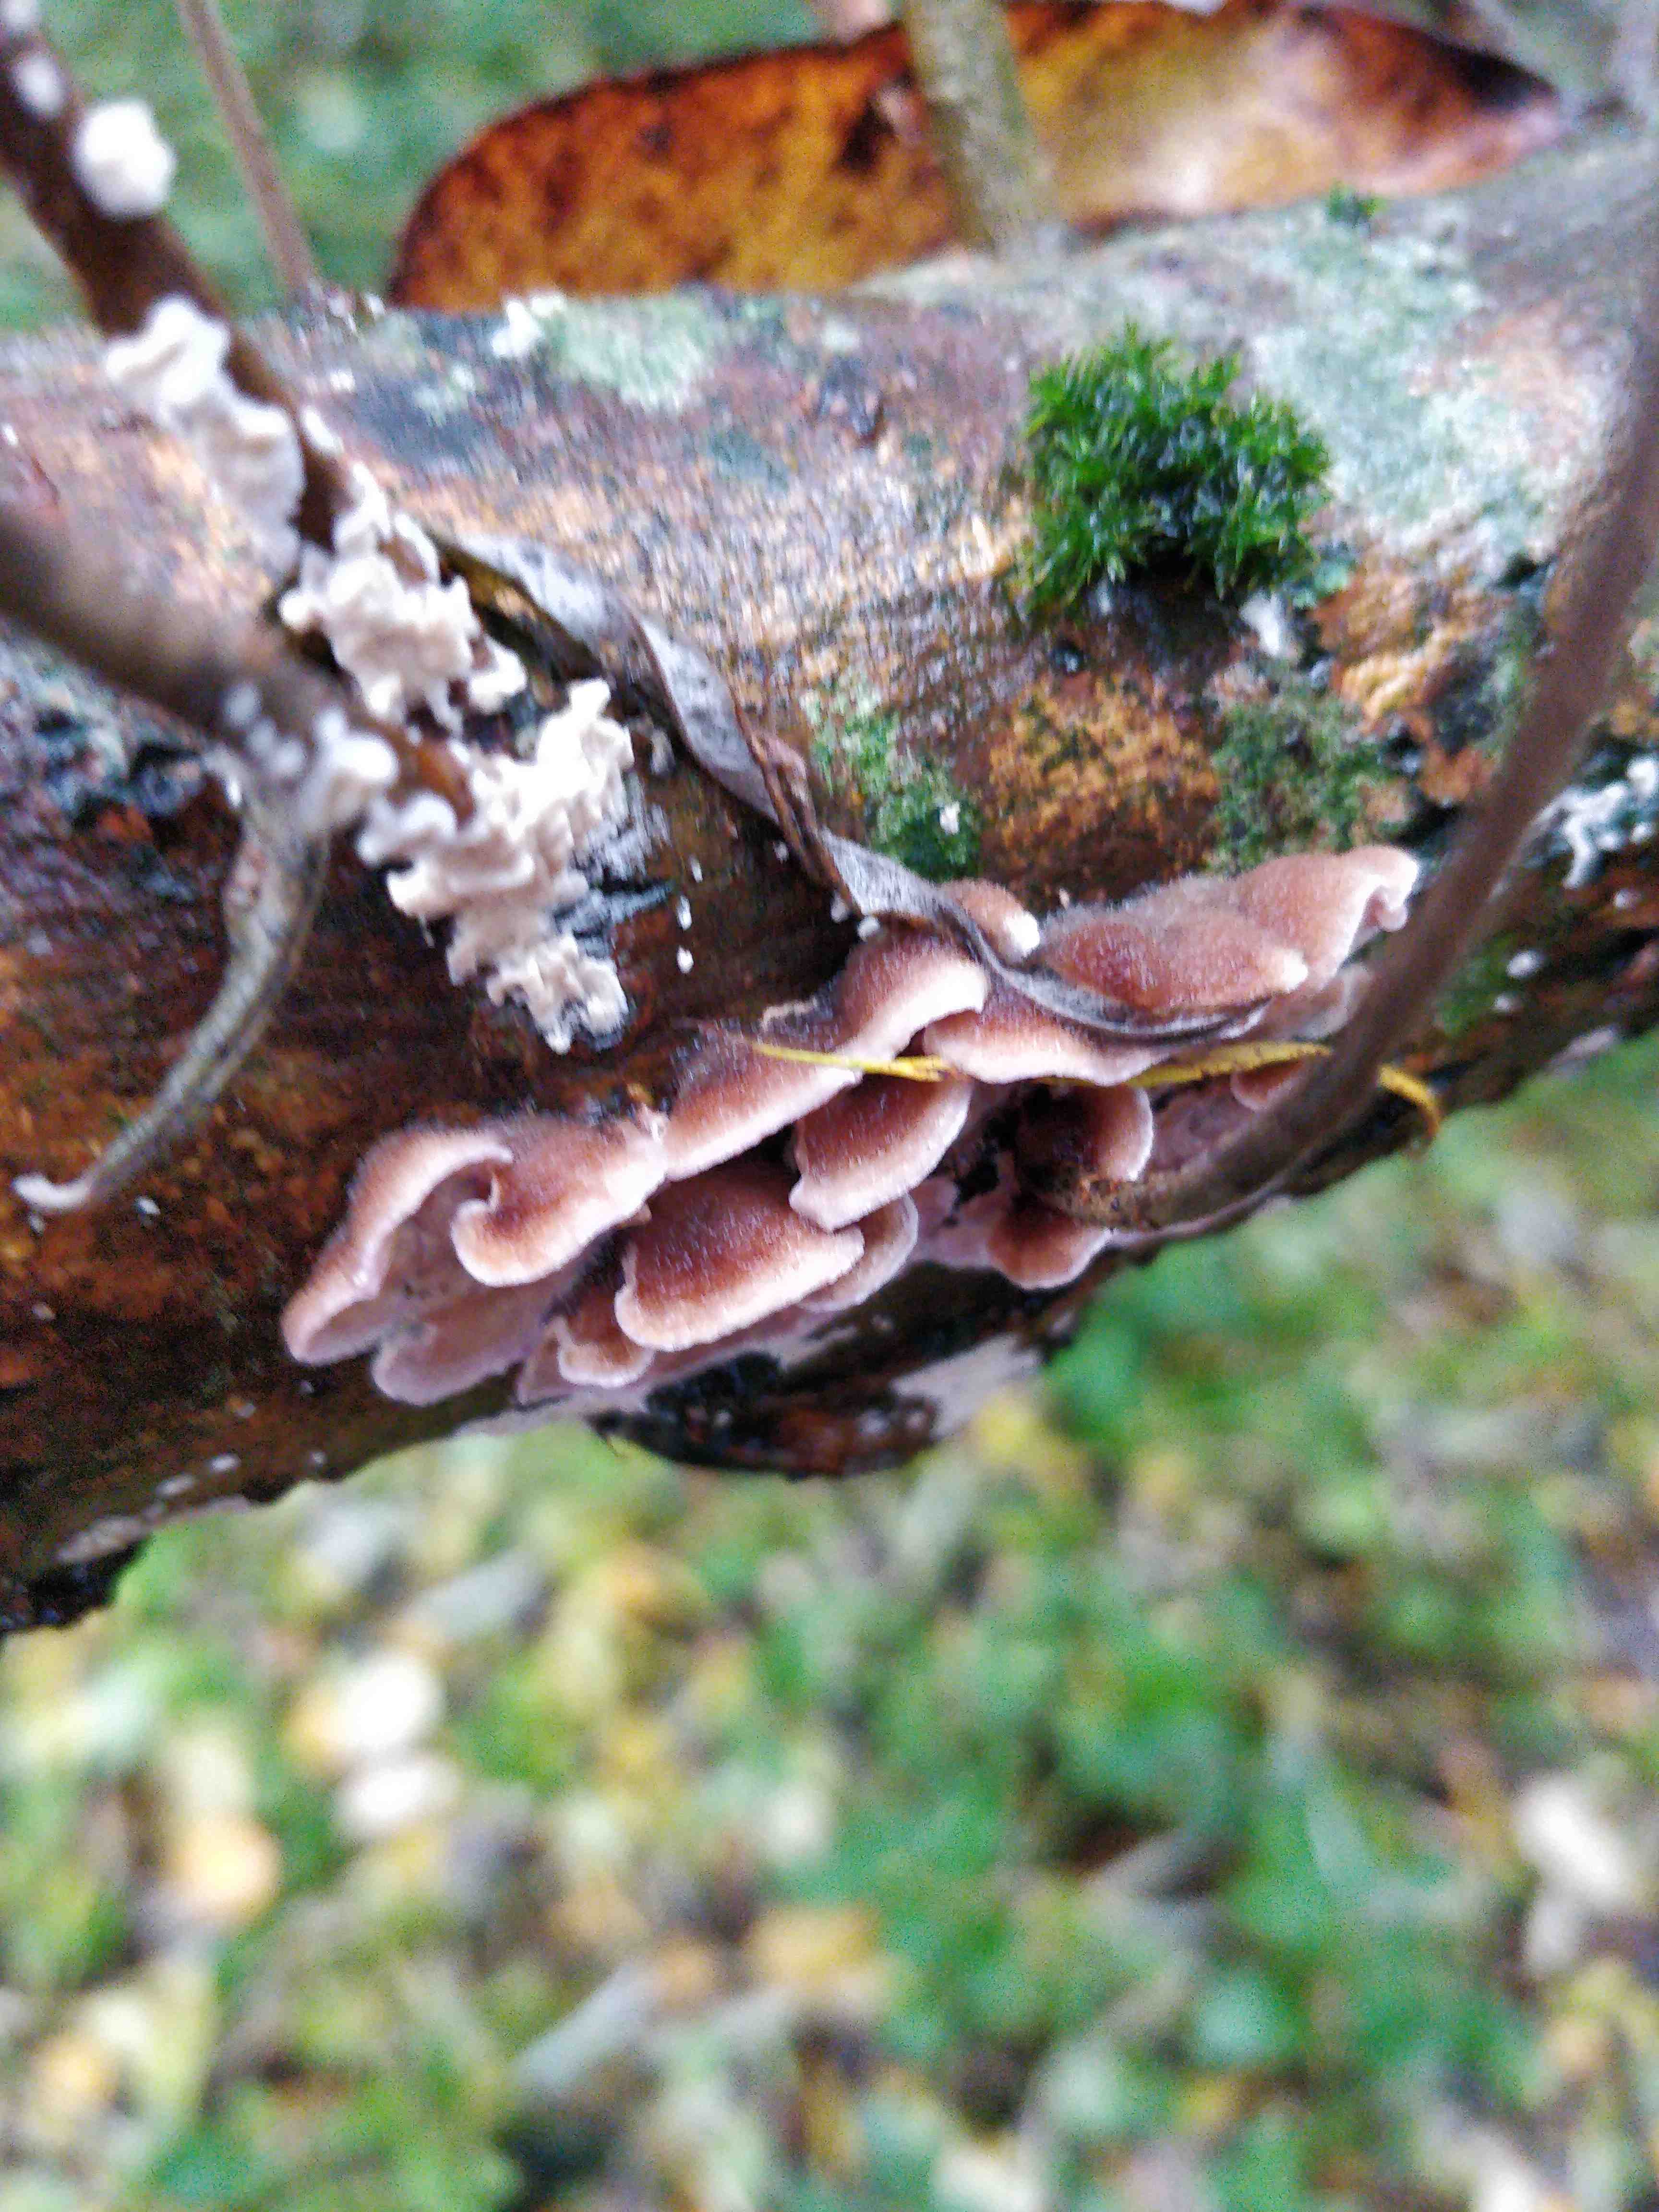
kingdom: Fungi
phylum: Basidiomycota
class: Agaricomycetes
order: Agaricales
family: Cyphellaceae
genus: Chondrostereum
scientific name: Chondrostereum purpureum
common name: purpurlædersvamp
